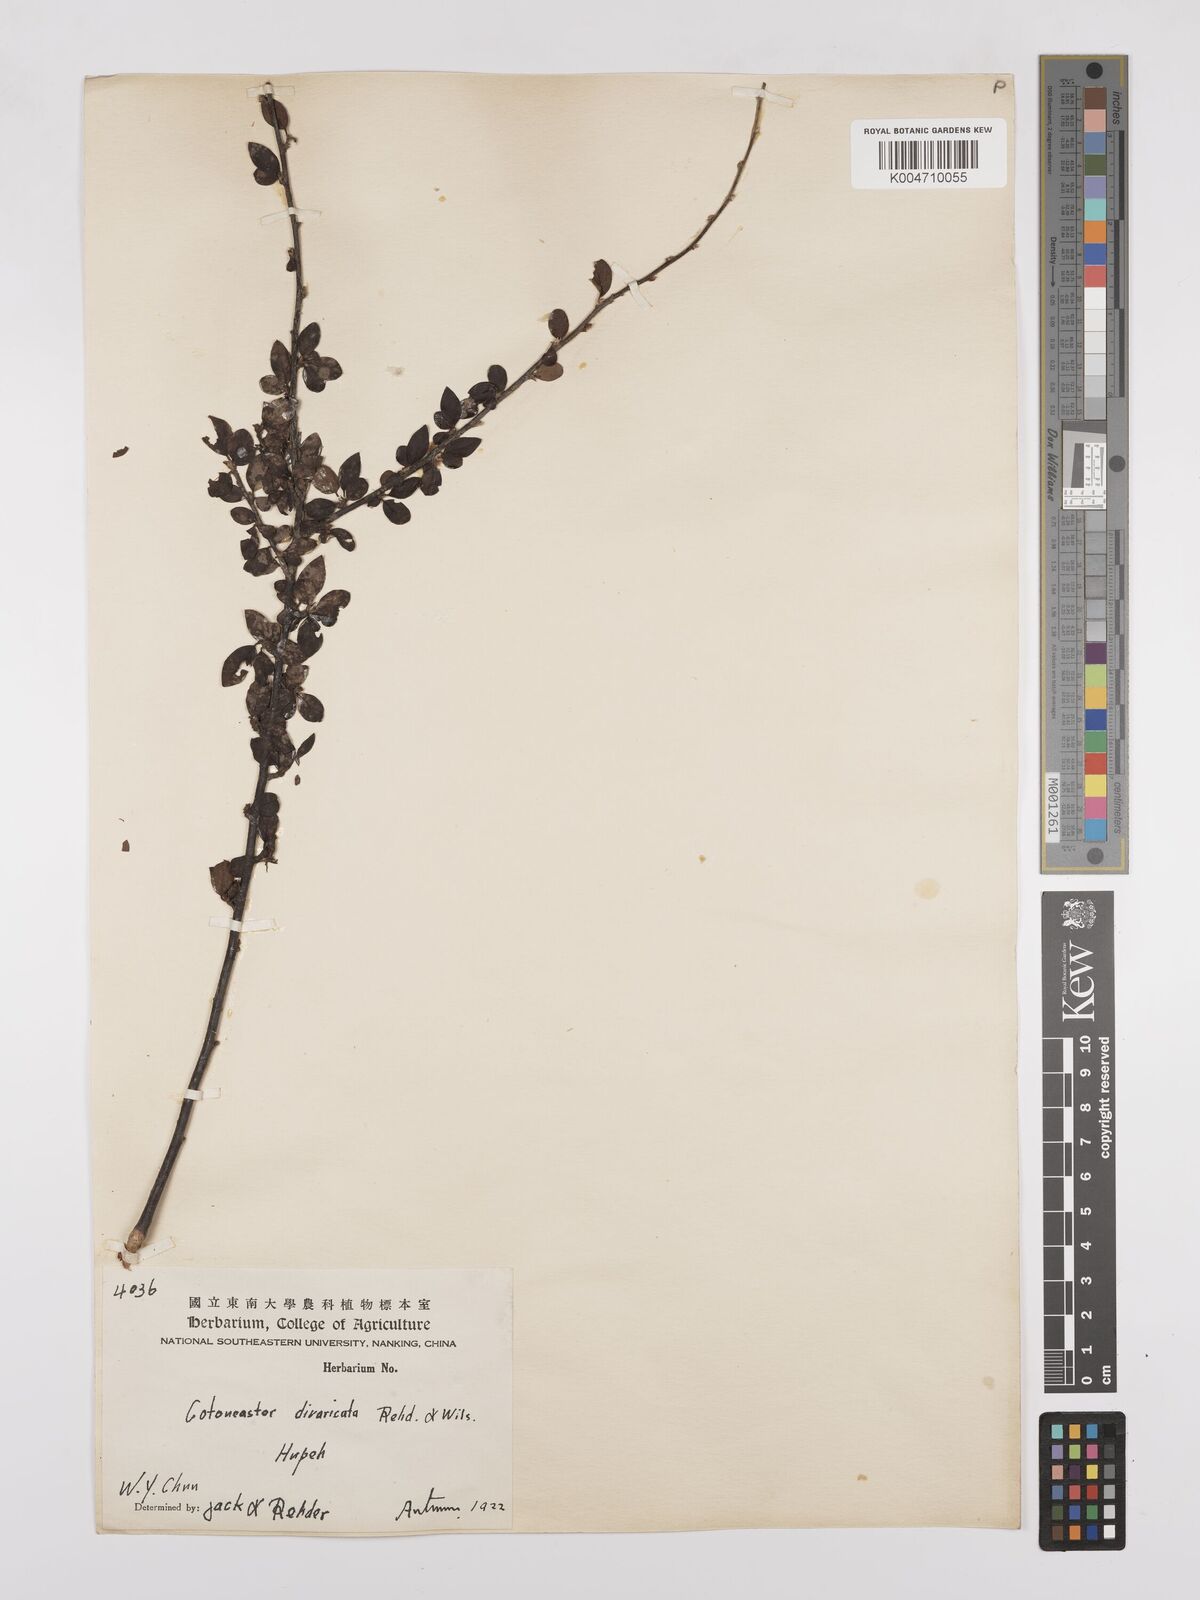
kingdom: Plantae
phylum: Tracheophyta
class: Magnoliopsida
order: Rosales
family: Rosaceae
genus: Cotoneaster
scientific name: Cotoneaster divaricatus
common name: Spreading cotoneaster
